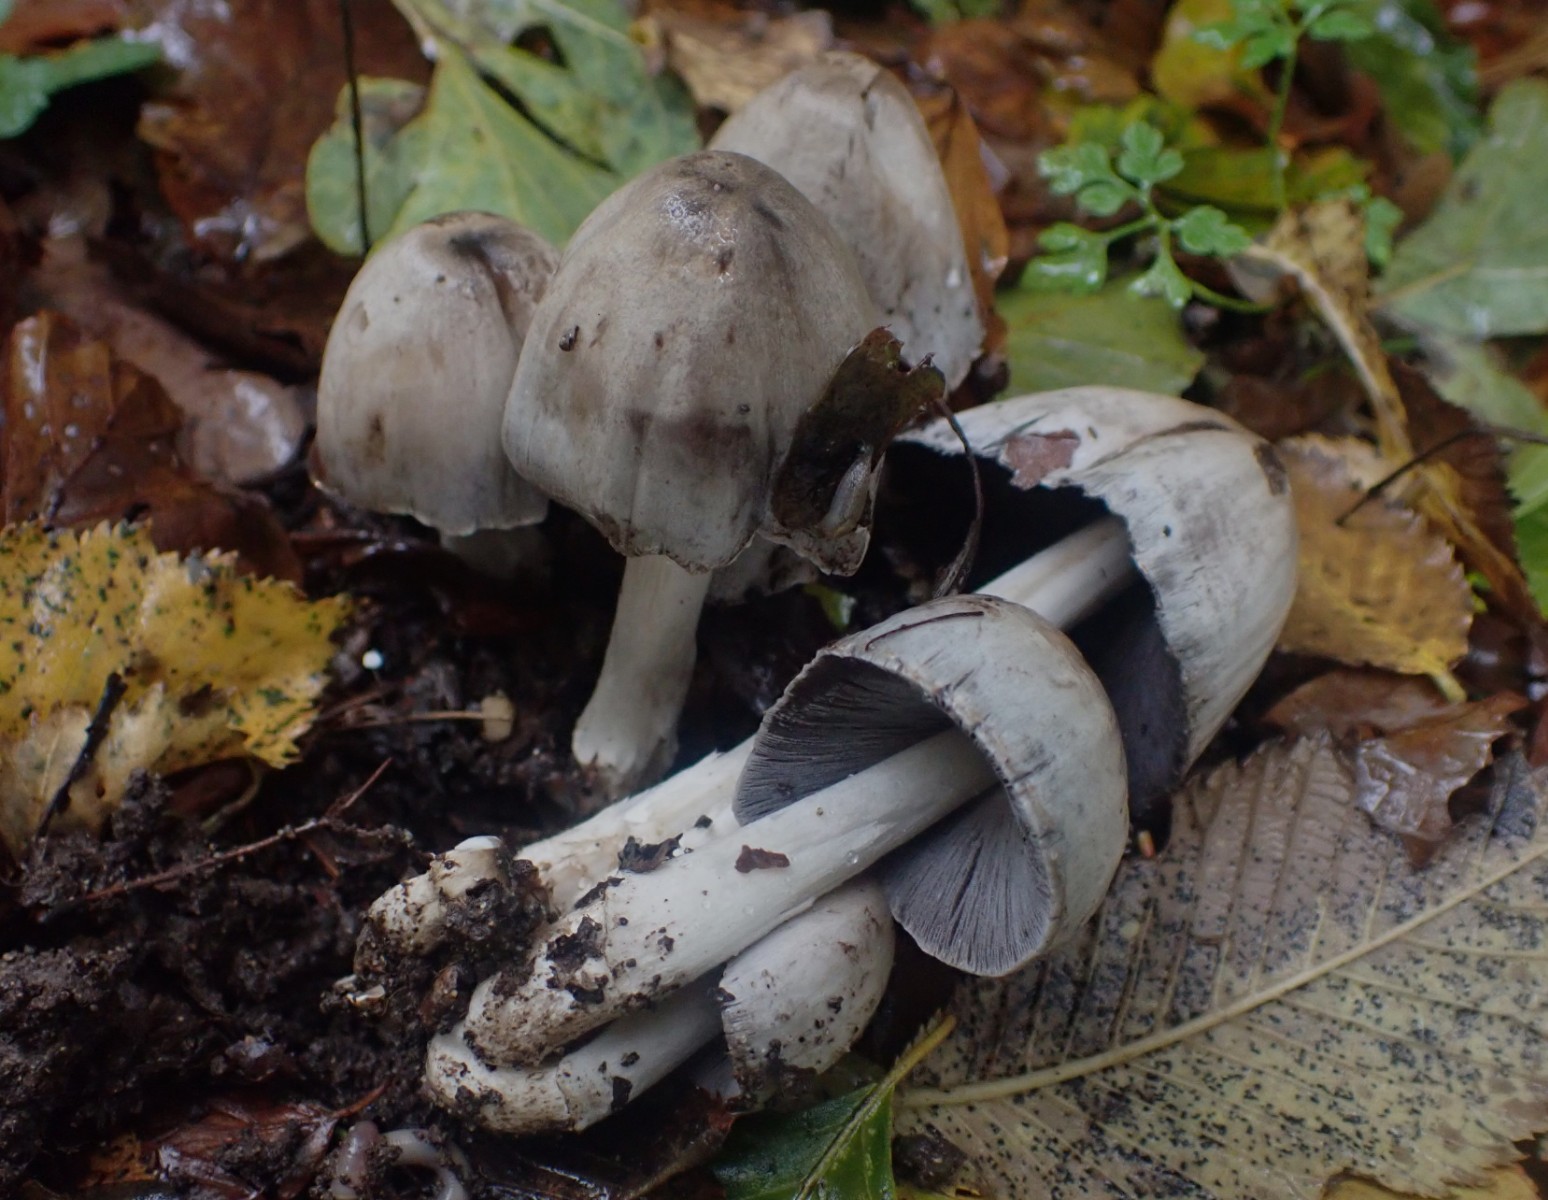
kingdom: Fungi
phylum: Basidiomycota
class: Agaricomycetes
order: Agaricales
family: Psathyrellaceae
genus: Coprinopsis
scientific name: Coprinopsis atramentaria
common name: almindelig blækhat
